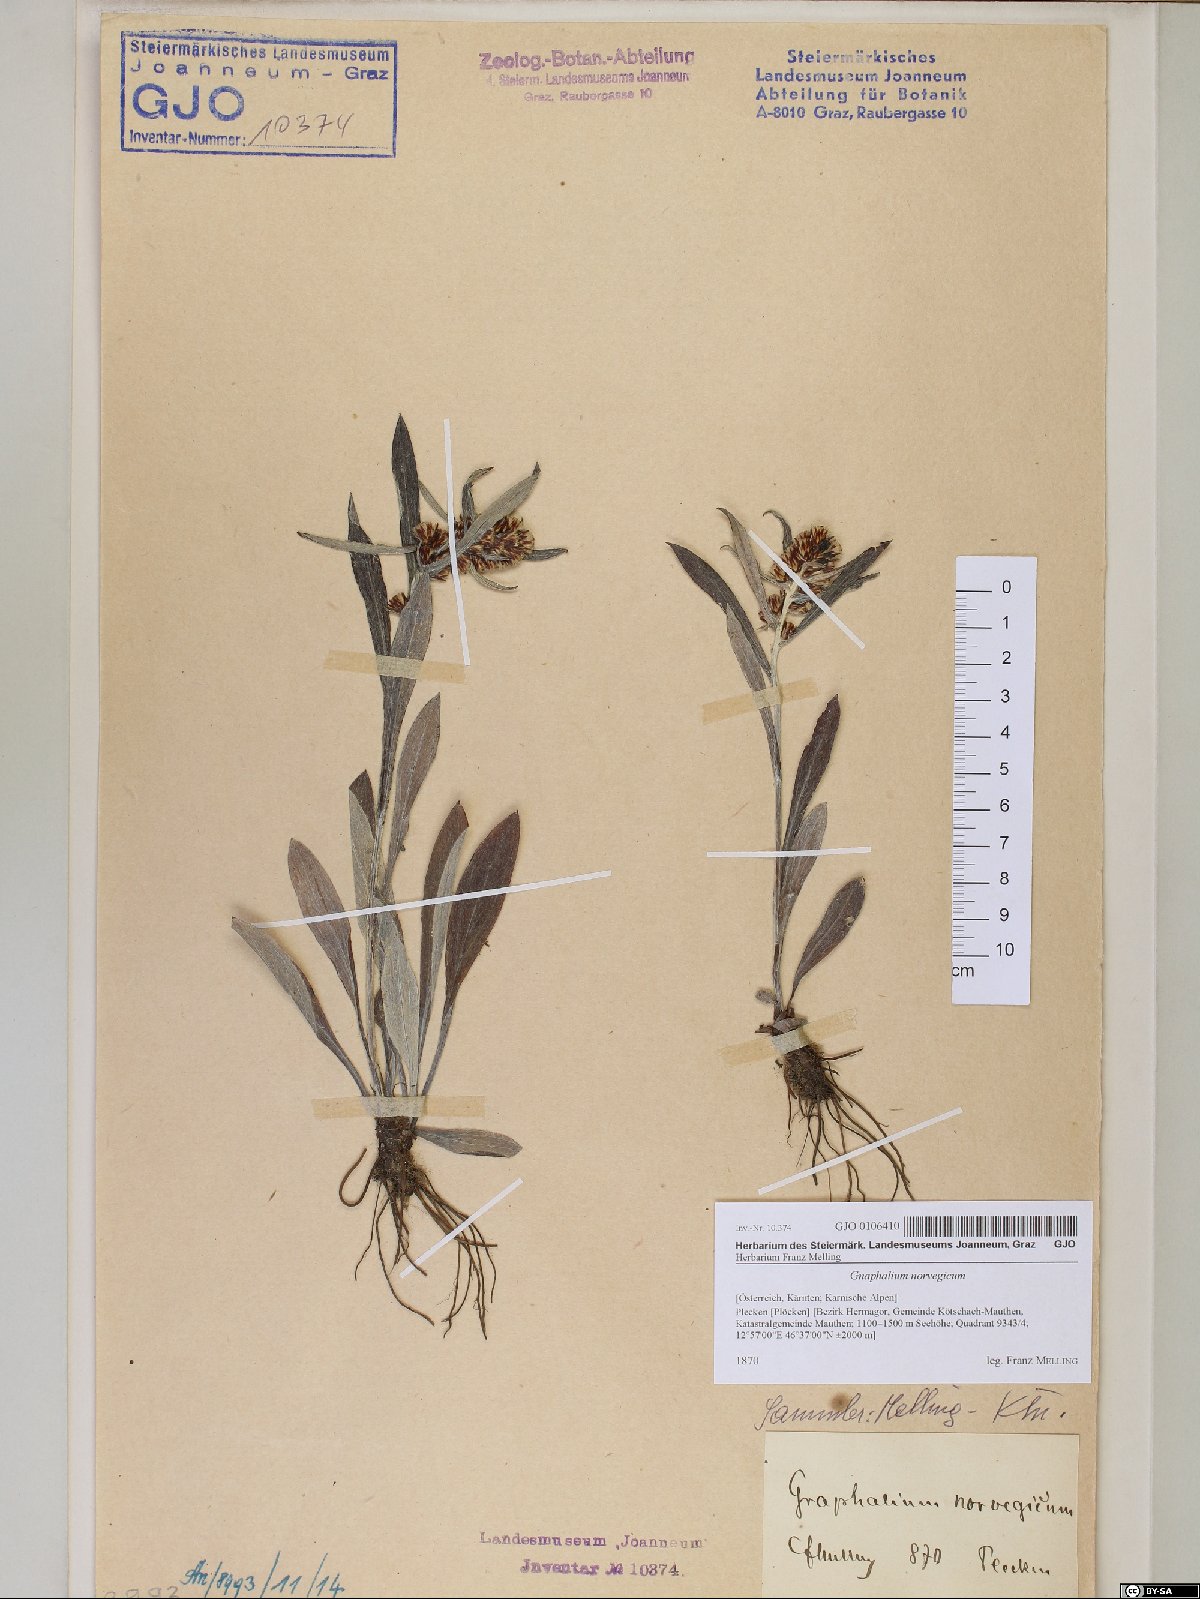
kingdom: Plantae
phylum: Tracheophyta
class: Magnoliopsida
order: Asterales
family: Asteraceae
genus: Omalotheca
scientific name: Omalotheca norvegica
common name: Norwegian arctic-cudweed
